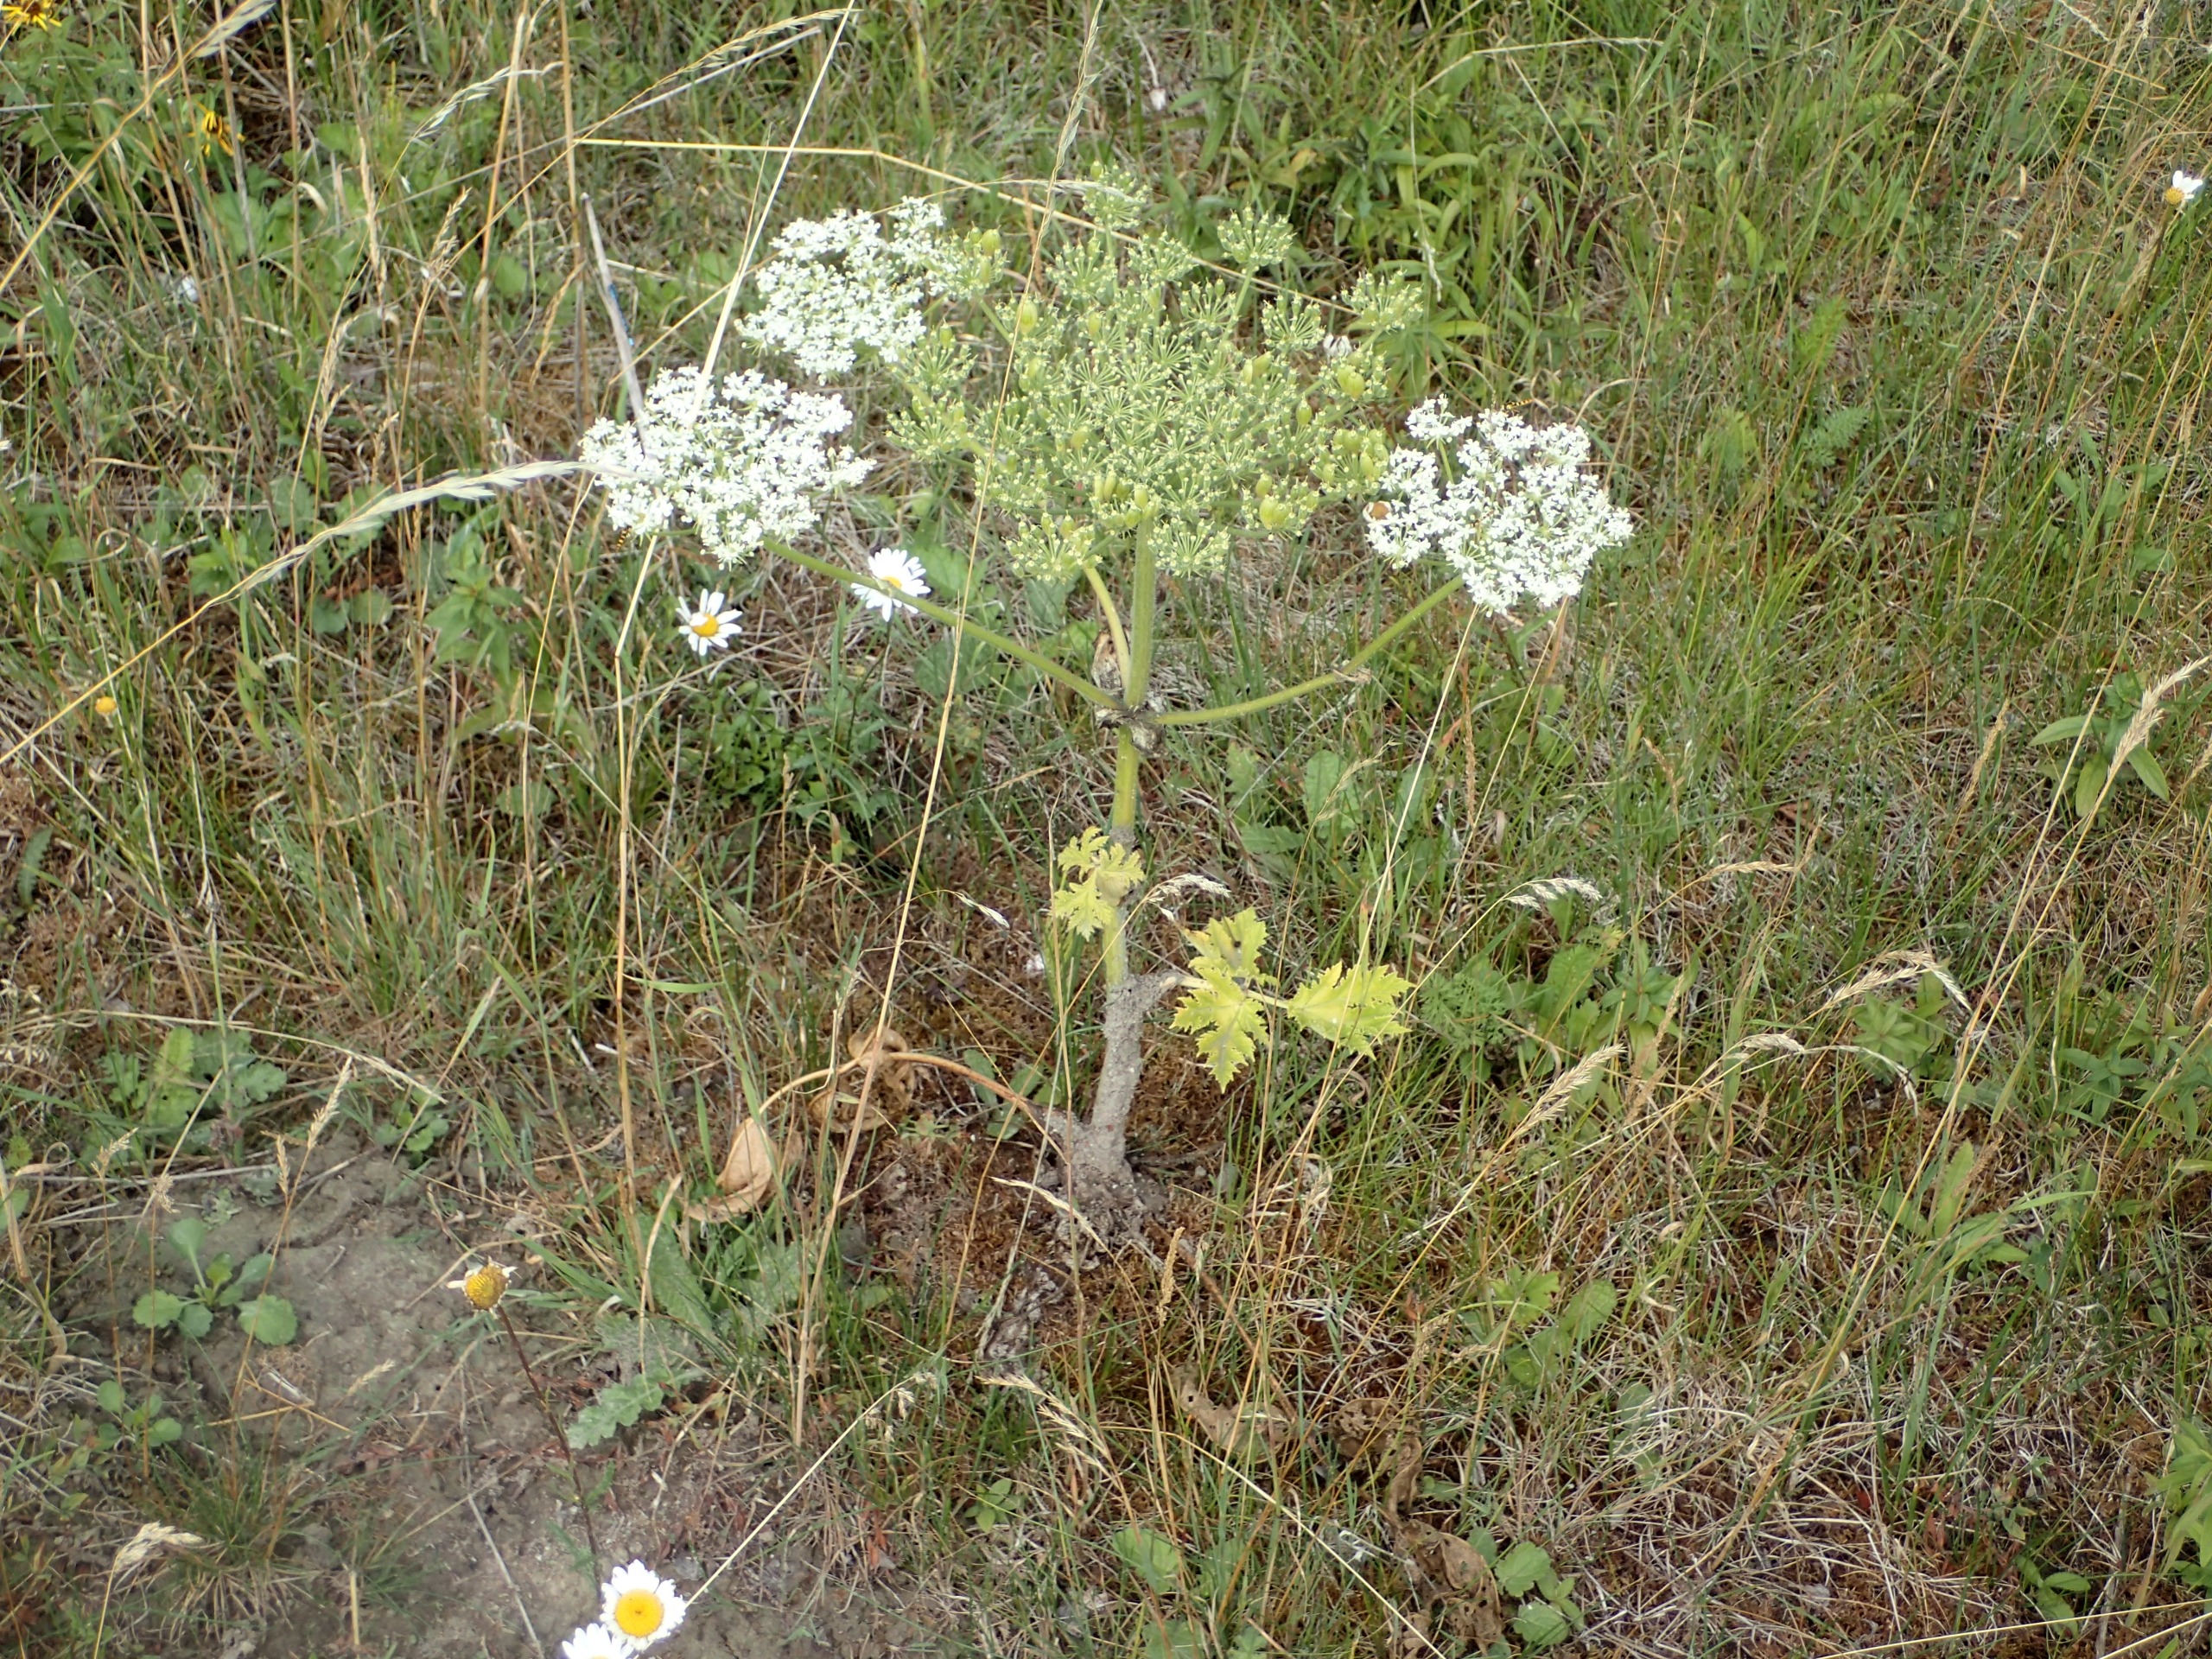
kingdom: Plantae
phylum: Tracheophyta
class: Magnoliopsida
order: Apiales
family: Apiaceae
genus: Heracleum
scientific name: Heracleum mantegazzianum
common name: Kæmpe-bjørneklo
